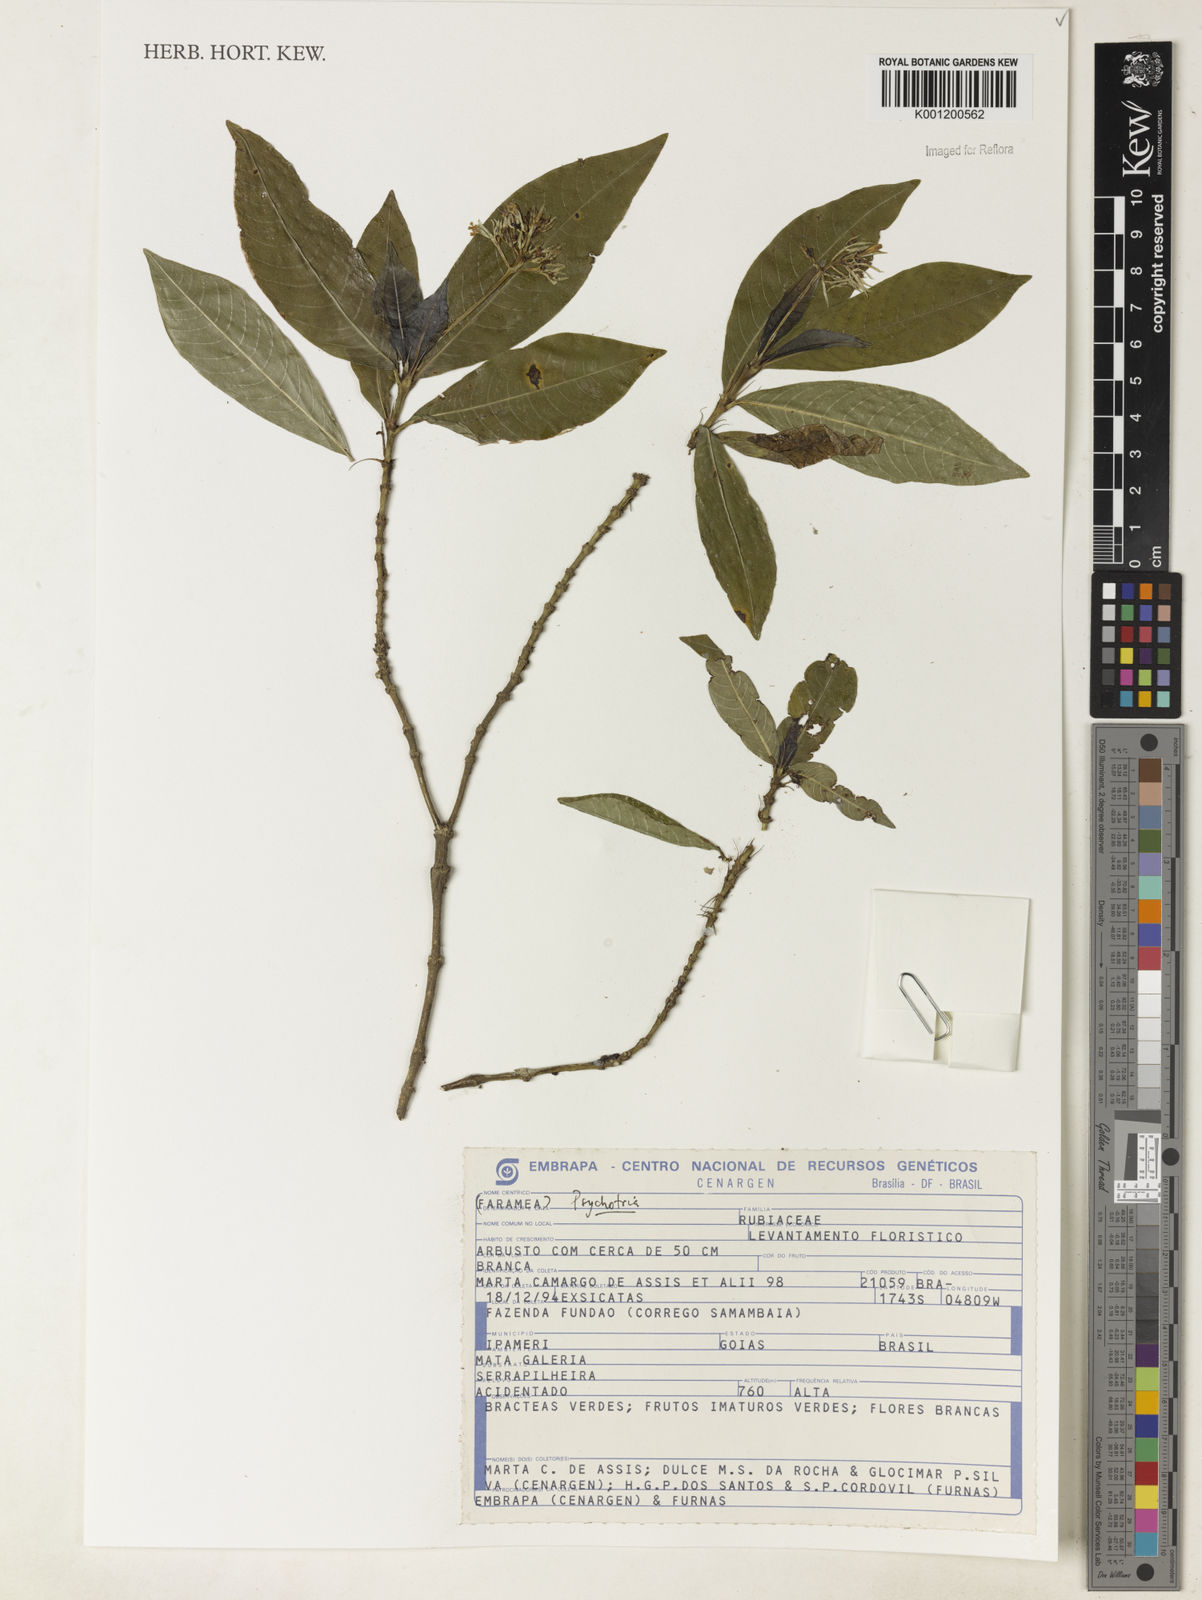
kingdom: Plantae
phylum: Tracheophyta
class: Magnoliopsida
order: Gentianales
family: Rubiaceae
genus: Psychotria
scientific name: Psychotria
